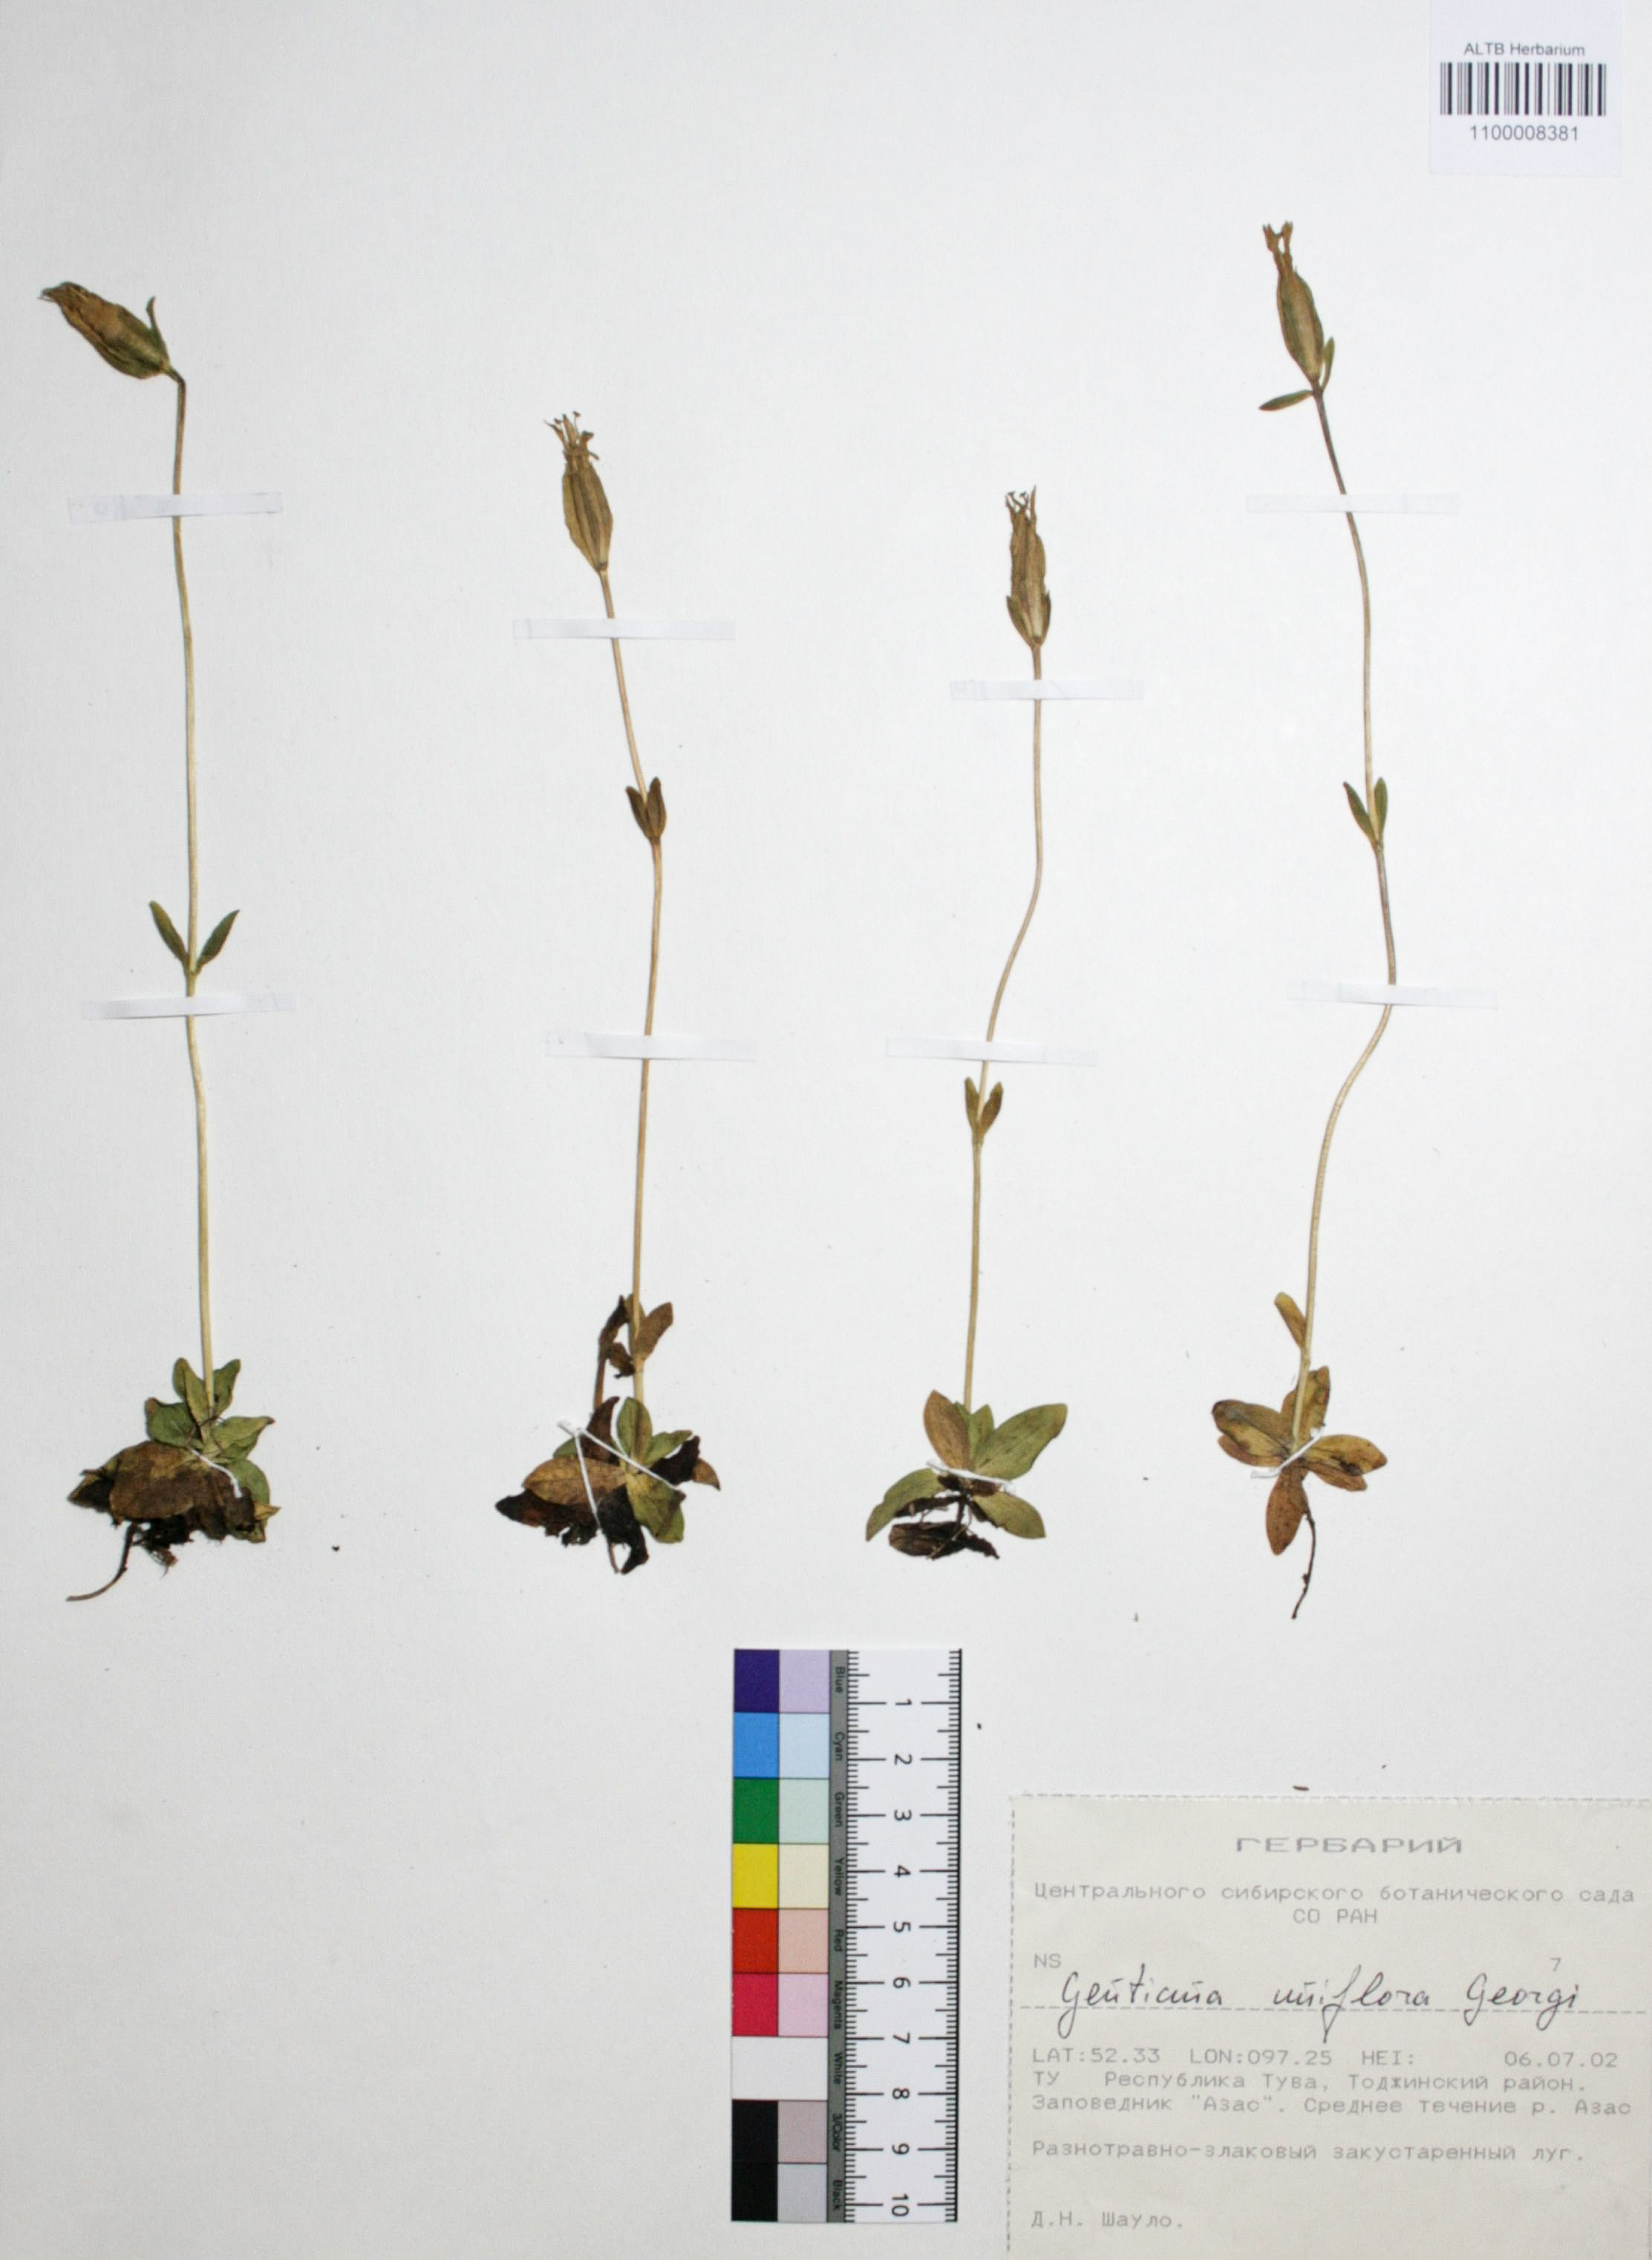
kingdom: Plantae
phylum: Tracheophyta
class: Magnoliopsida
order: Gentianales
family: Gentianaceae
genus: Gentiana
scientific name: Gentiana uniflora
